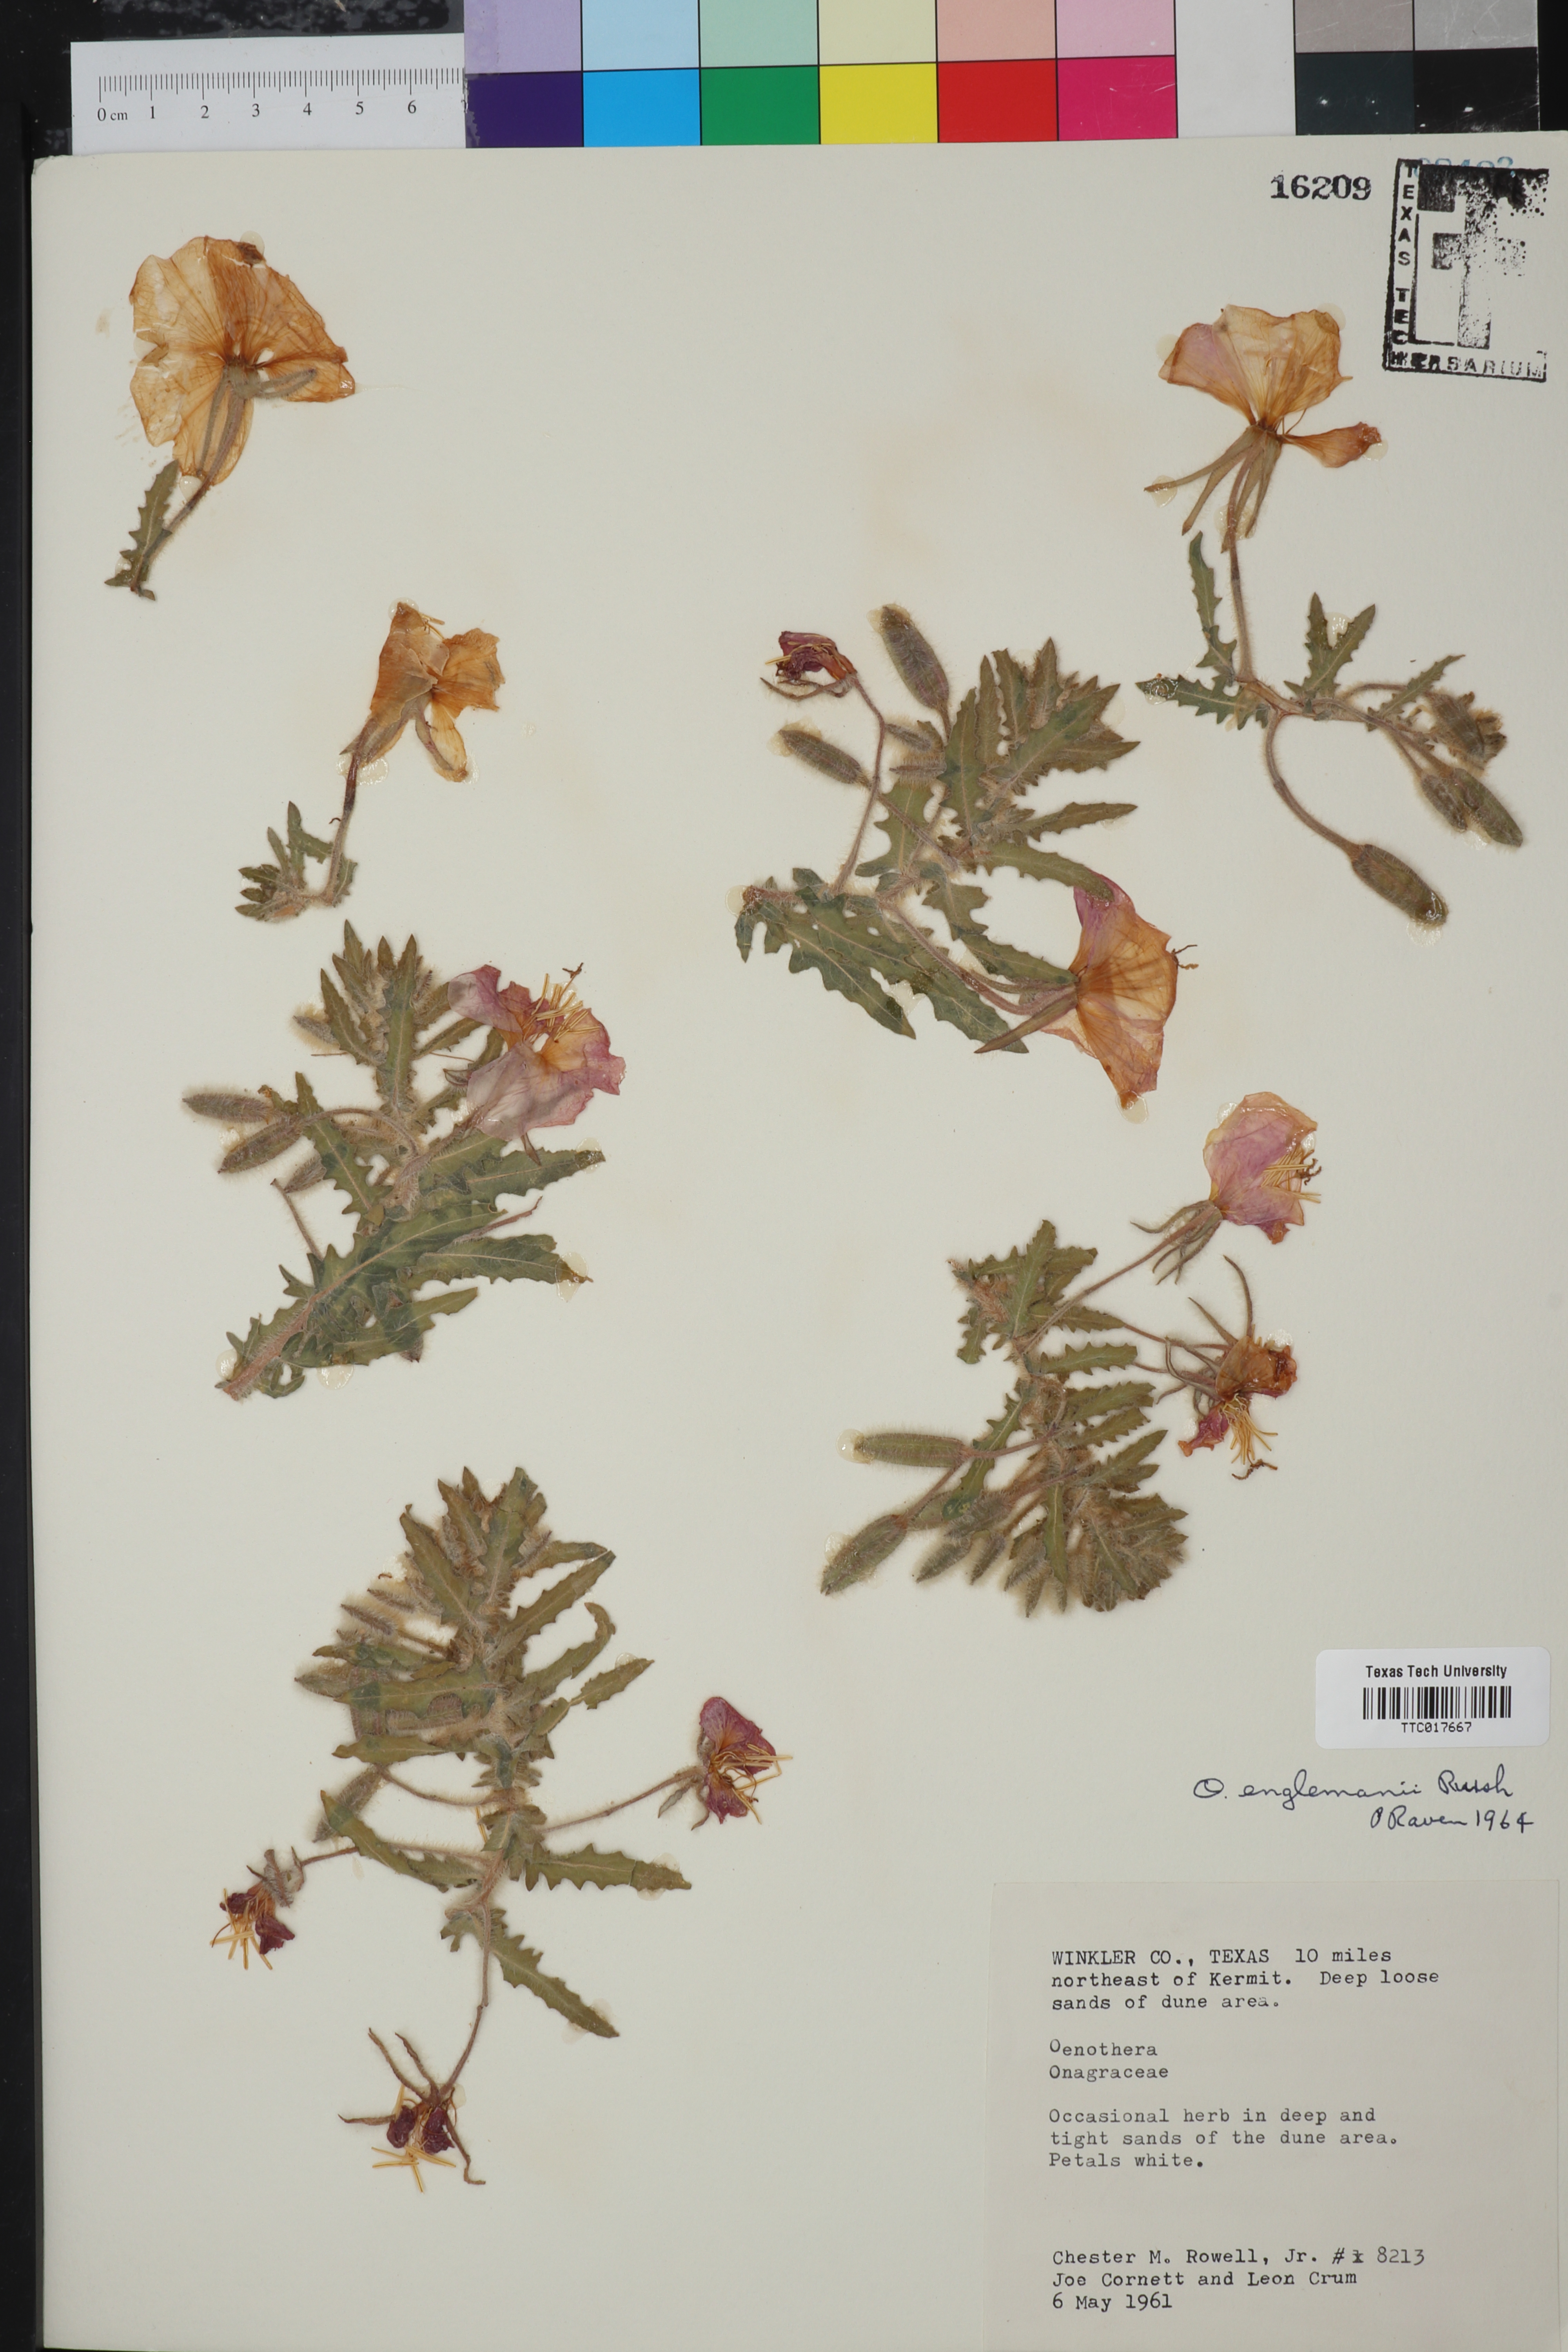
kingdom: Plantae
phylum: Tracheophyta
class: Magnoliopsida
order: Myrtales
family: Onagraceae
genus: Oenothera
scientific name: Oenothera engelmannii
